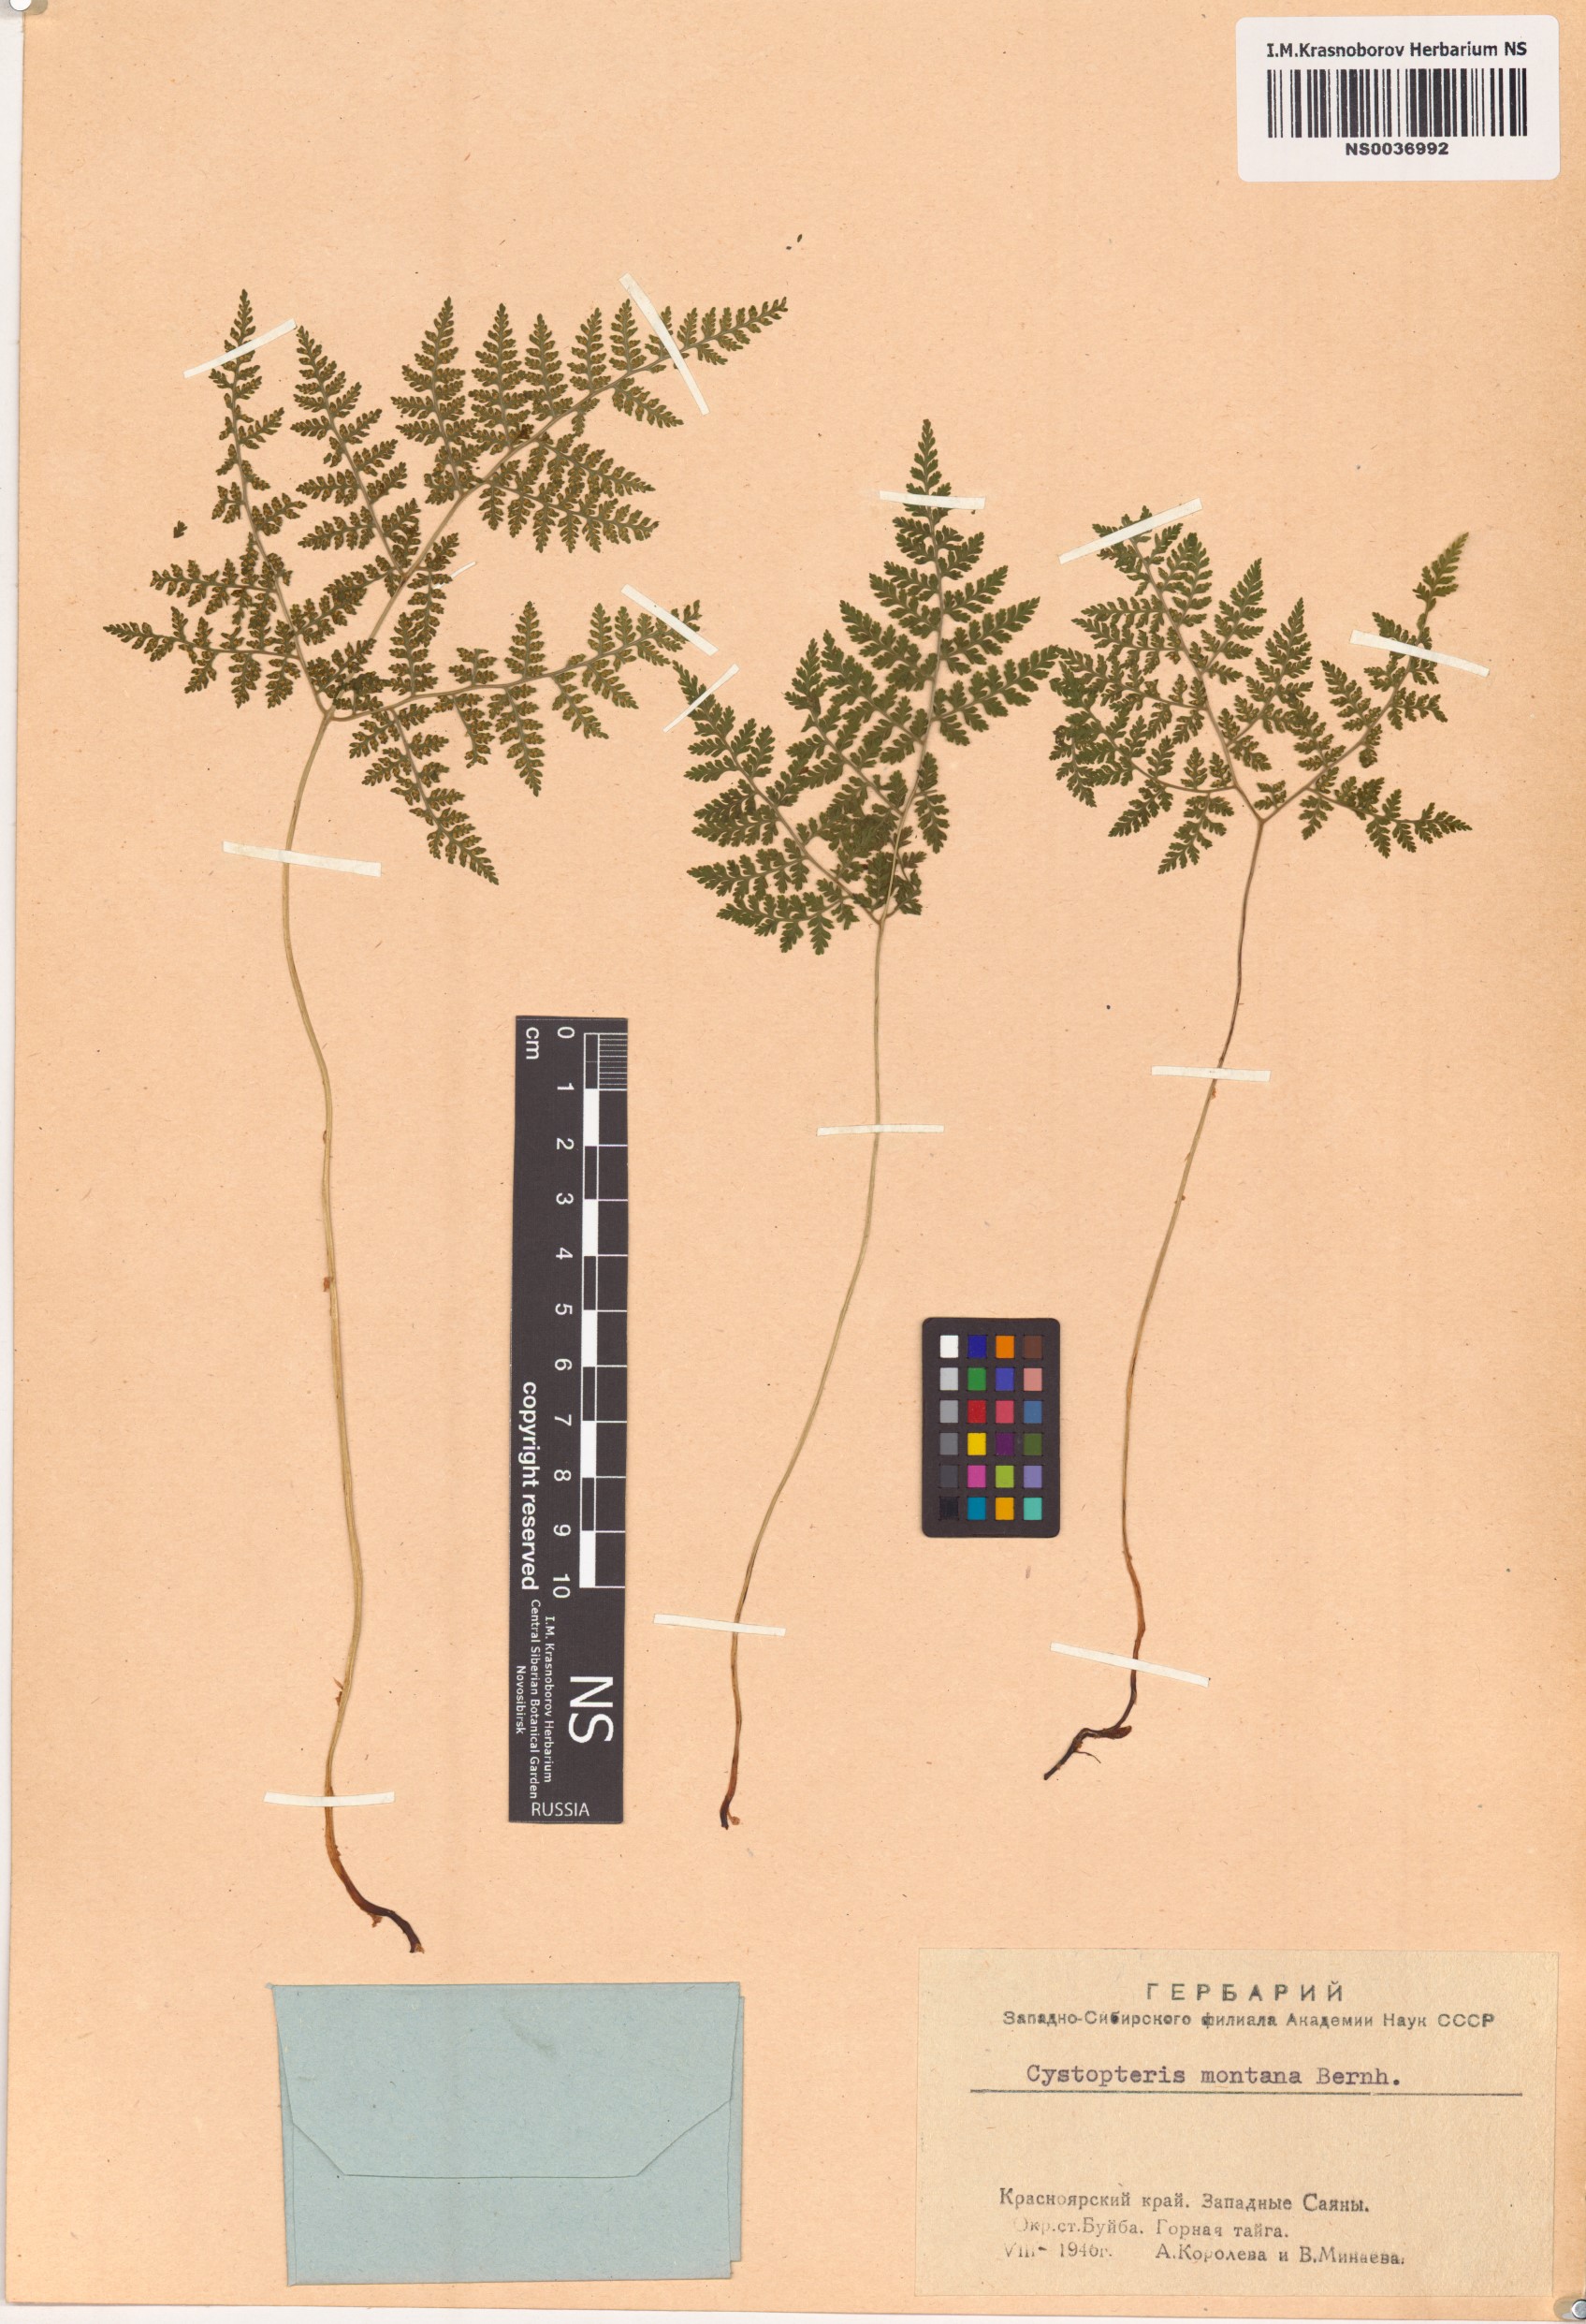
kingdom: Plantae
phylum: Tracheophyta
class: Polypodiopsida
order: Polypodiales
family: Cystopteridaceae
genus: Cystopteris
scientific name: Cystopteris montana
